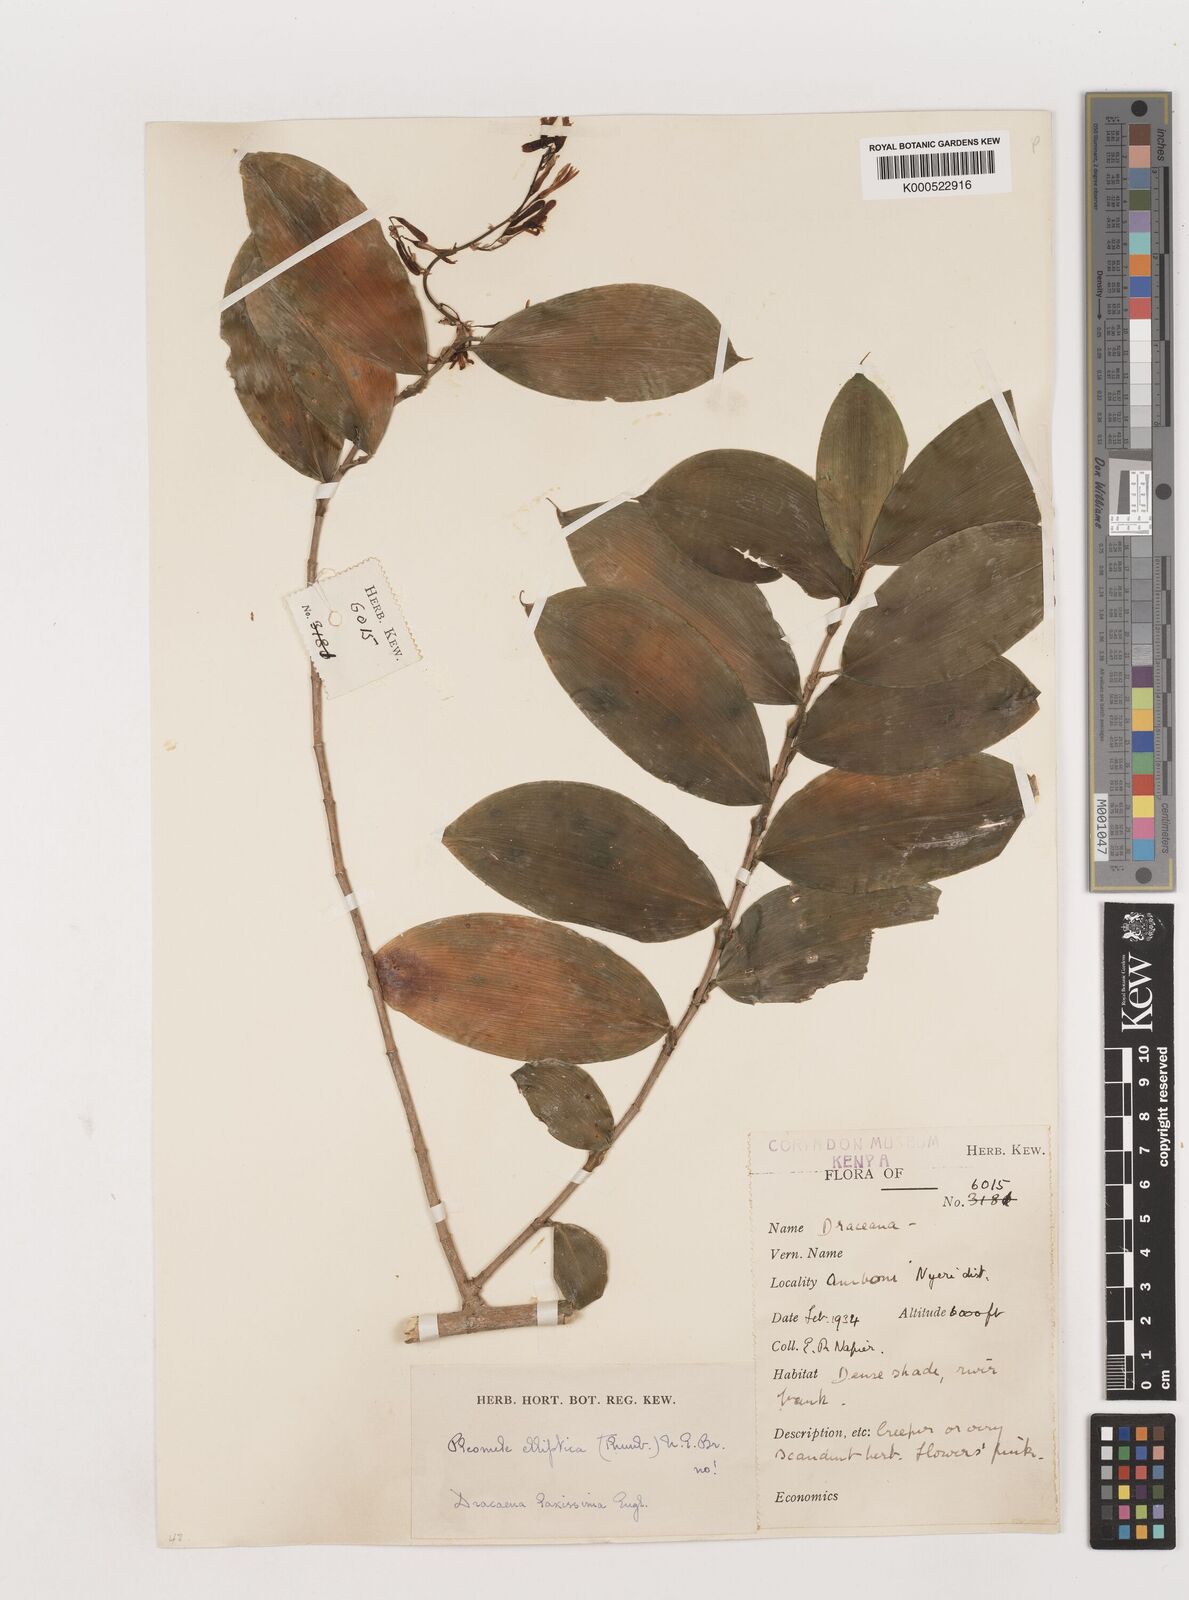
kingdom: Plantae
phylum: Tracheophyta
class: Liliopsida
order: Asparagales
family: Asparagaceae
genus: Dracaena
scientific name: Dracaena laxissima
